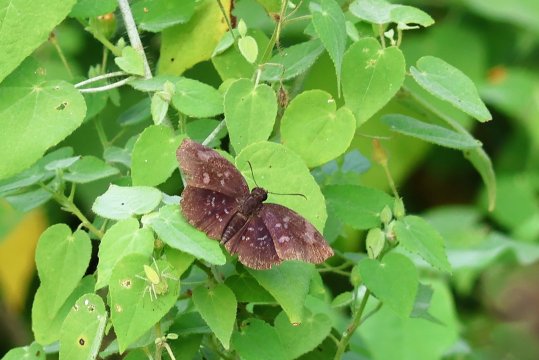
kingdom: Animalia
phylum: Arthropoda
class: Insecta
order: Lepidoptera
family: Hesperiidae
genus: Achlyodes
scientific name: Achlyodes thraso
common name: Sickle-winged Skipper
